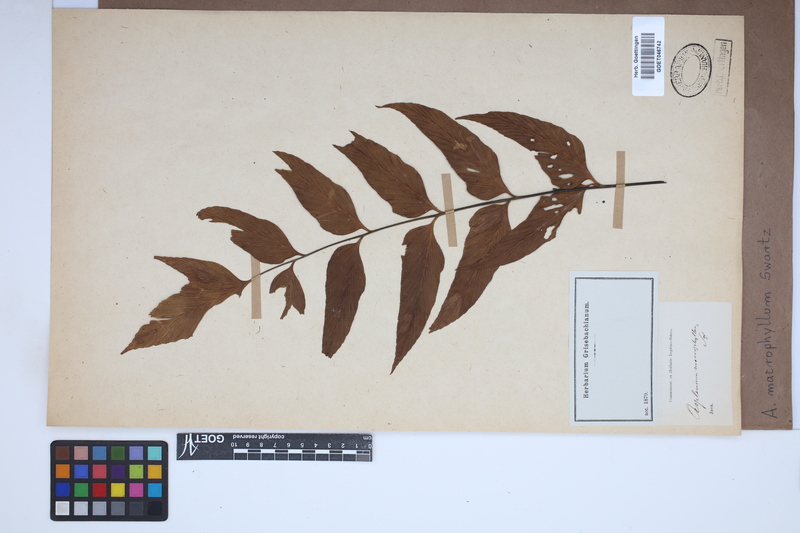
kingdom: Plantae
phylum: Tracheophyta
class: Polypodiopsida
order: Polypodiales
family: Aspleniaceae
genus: Asplenium
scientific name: Asplenium macrophyllum
